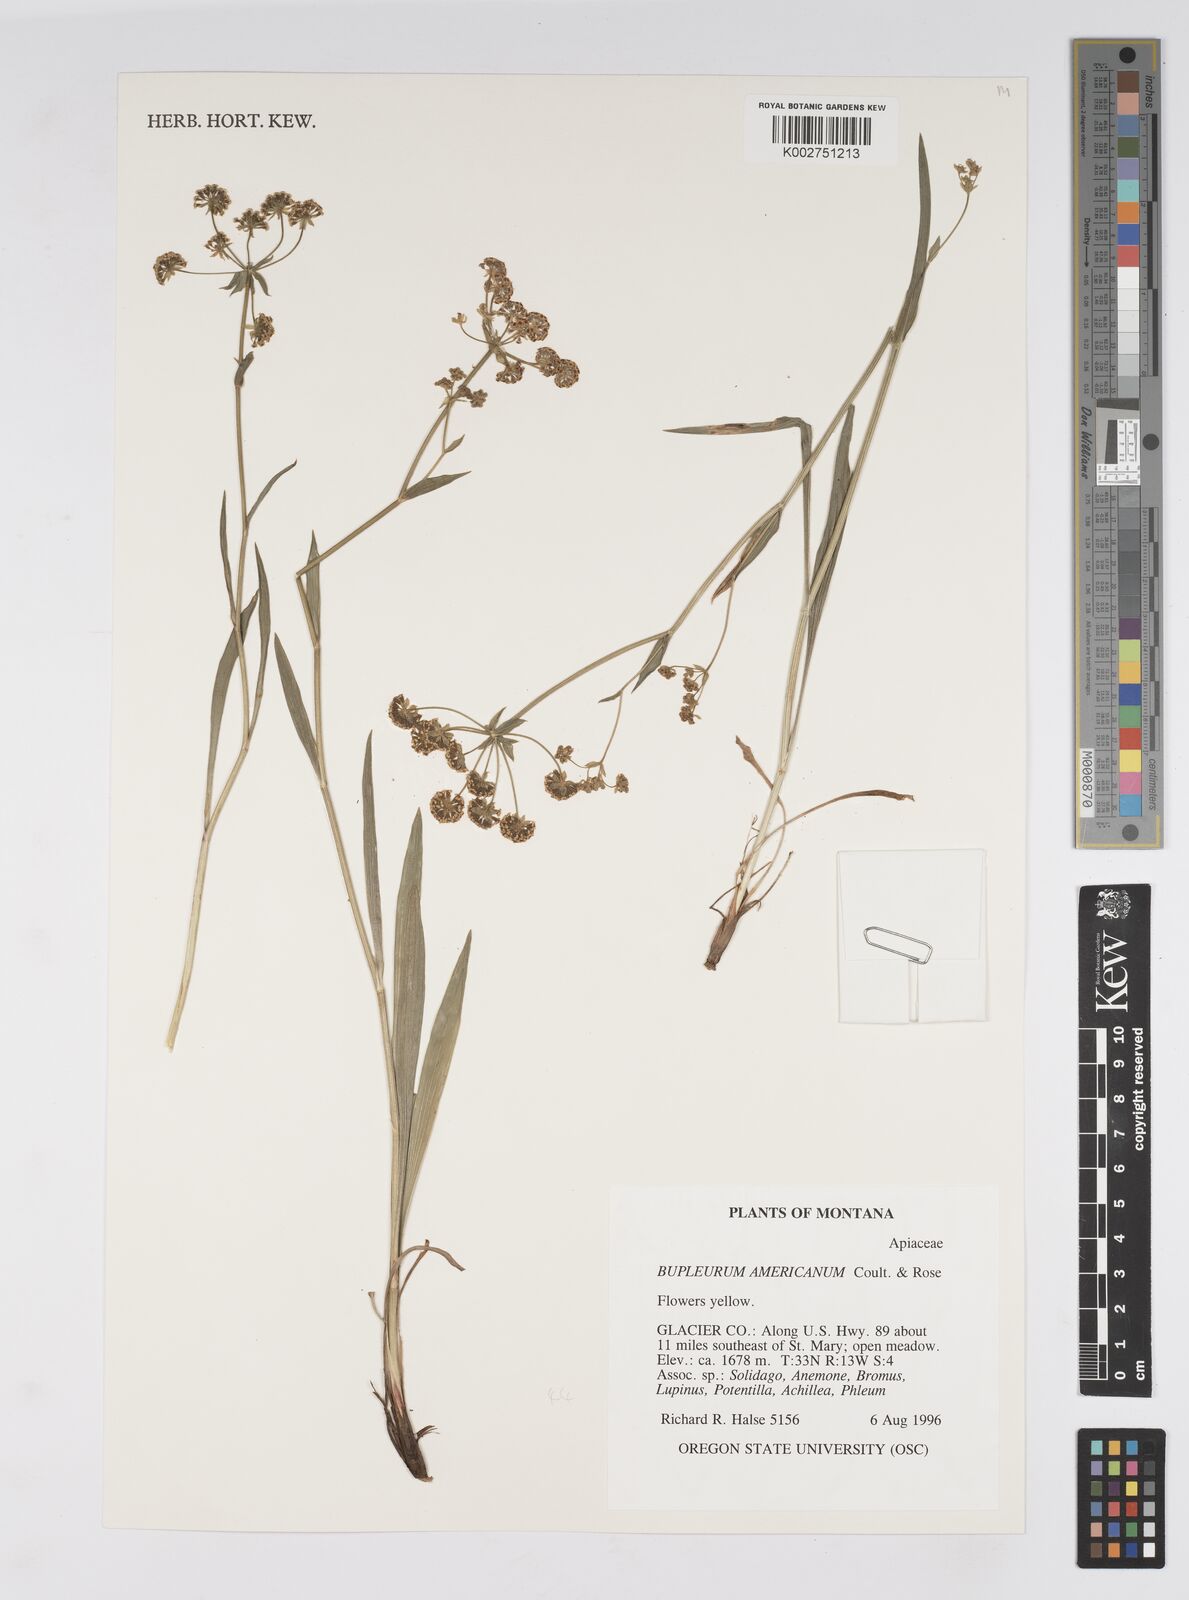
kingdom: Plantae
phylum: Tracheophyta
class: Magnoliopsida
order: Apiales
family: Apiaceae
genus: Bupleurum
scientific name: Bupleurum americanum
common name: American thoroughwax
